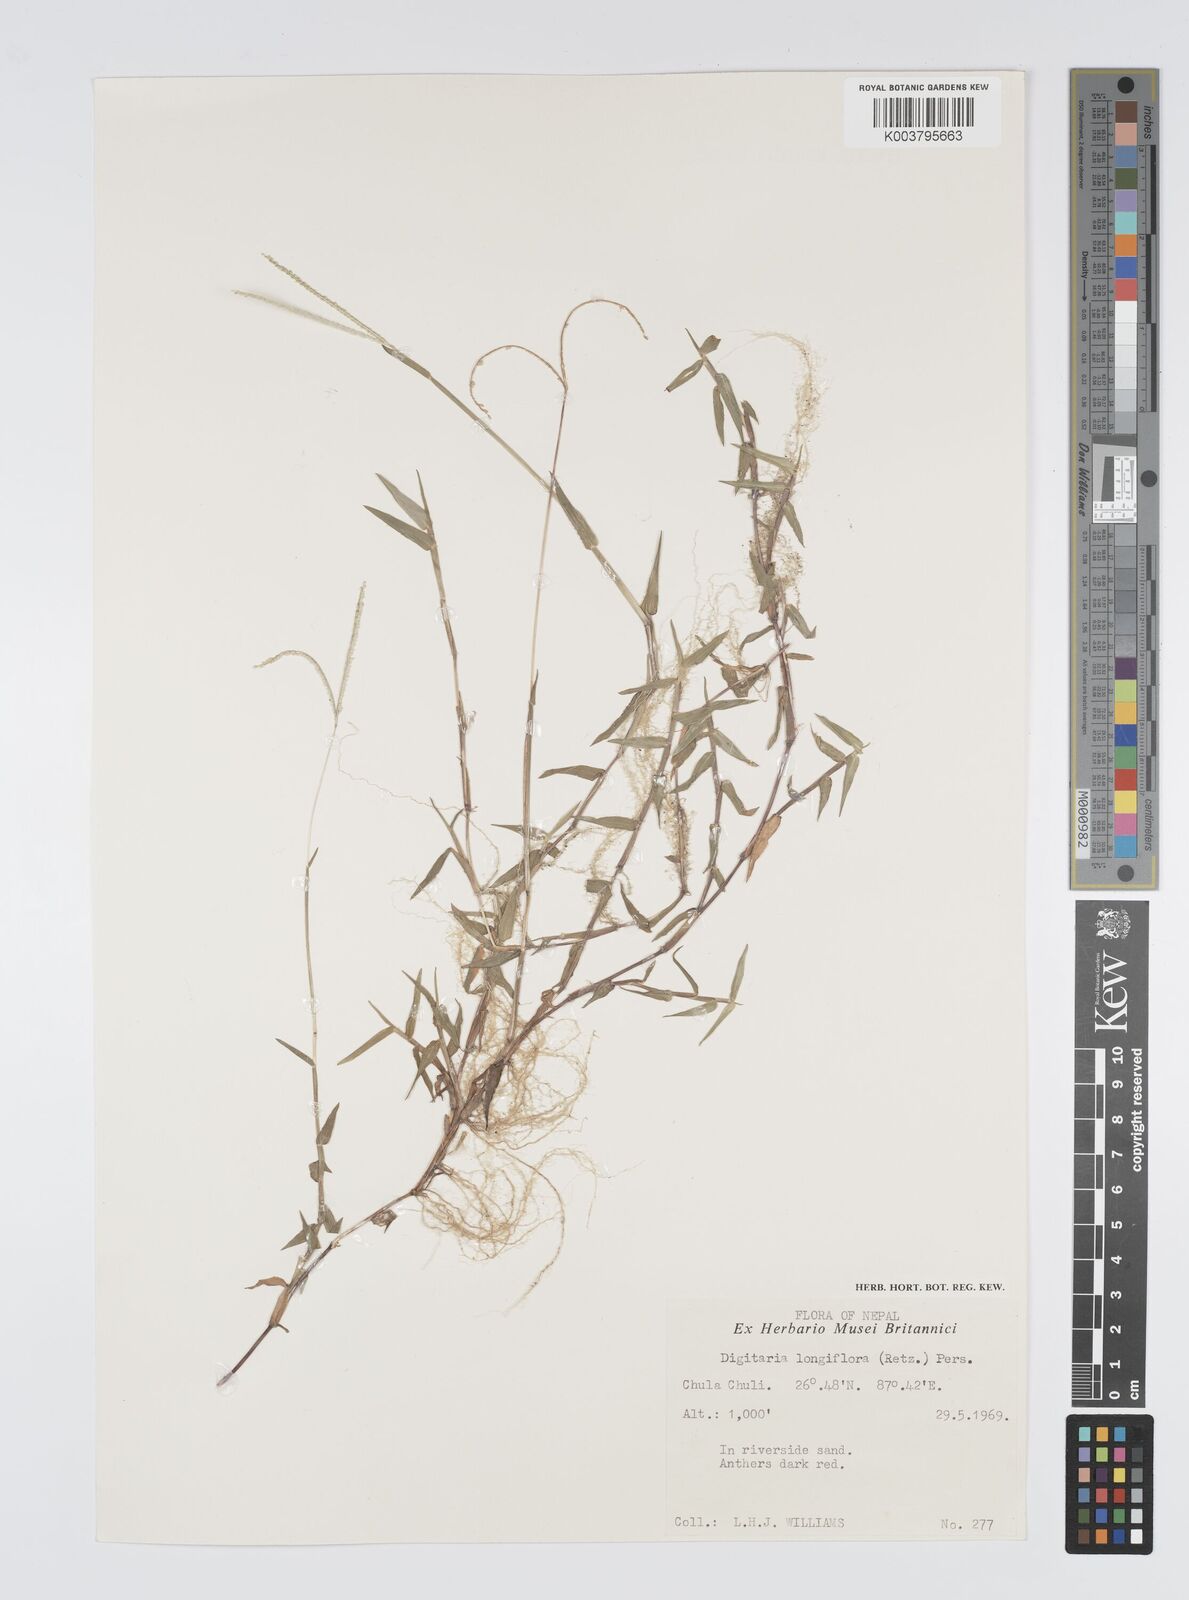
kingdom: Plantae
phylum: Tracheophyta
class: Liliopsida
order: Poales
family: Poaceae
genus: Digitaria
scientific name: Digitaria longiflora
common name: Wire crabgrass
